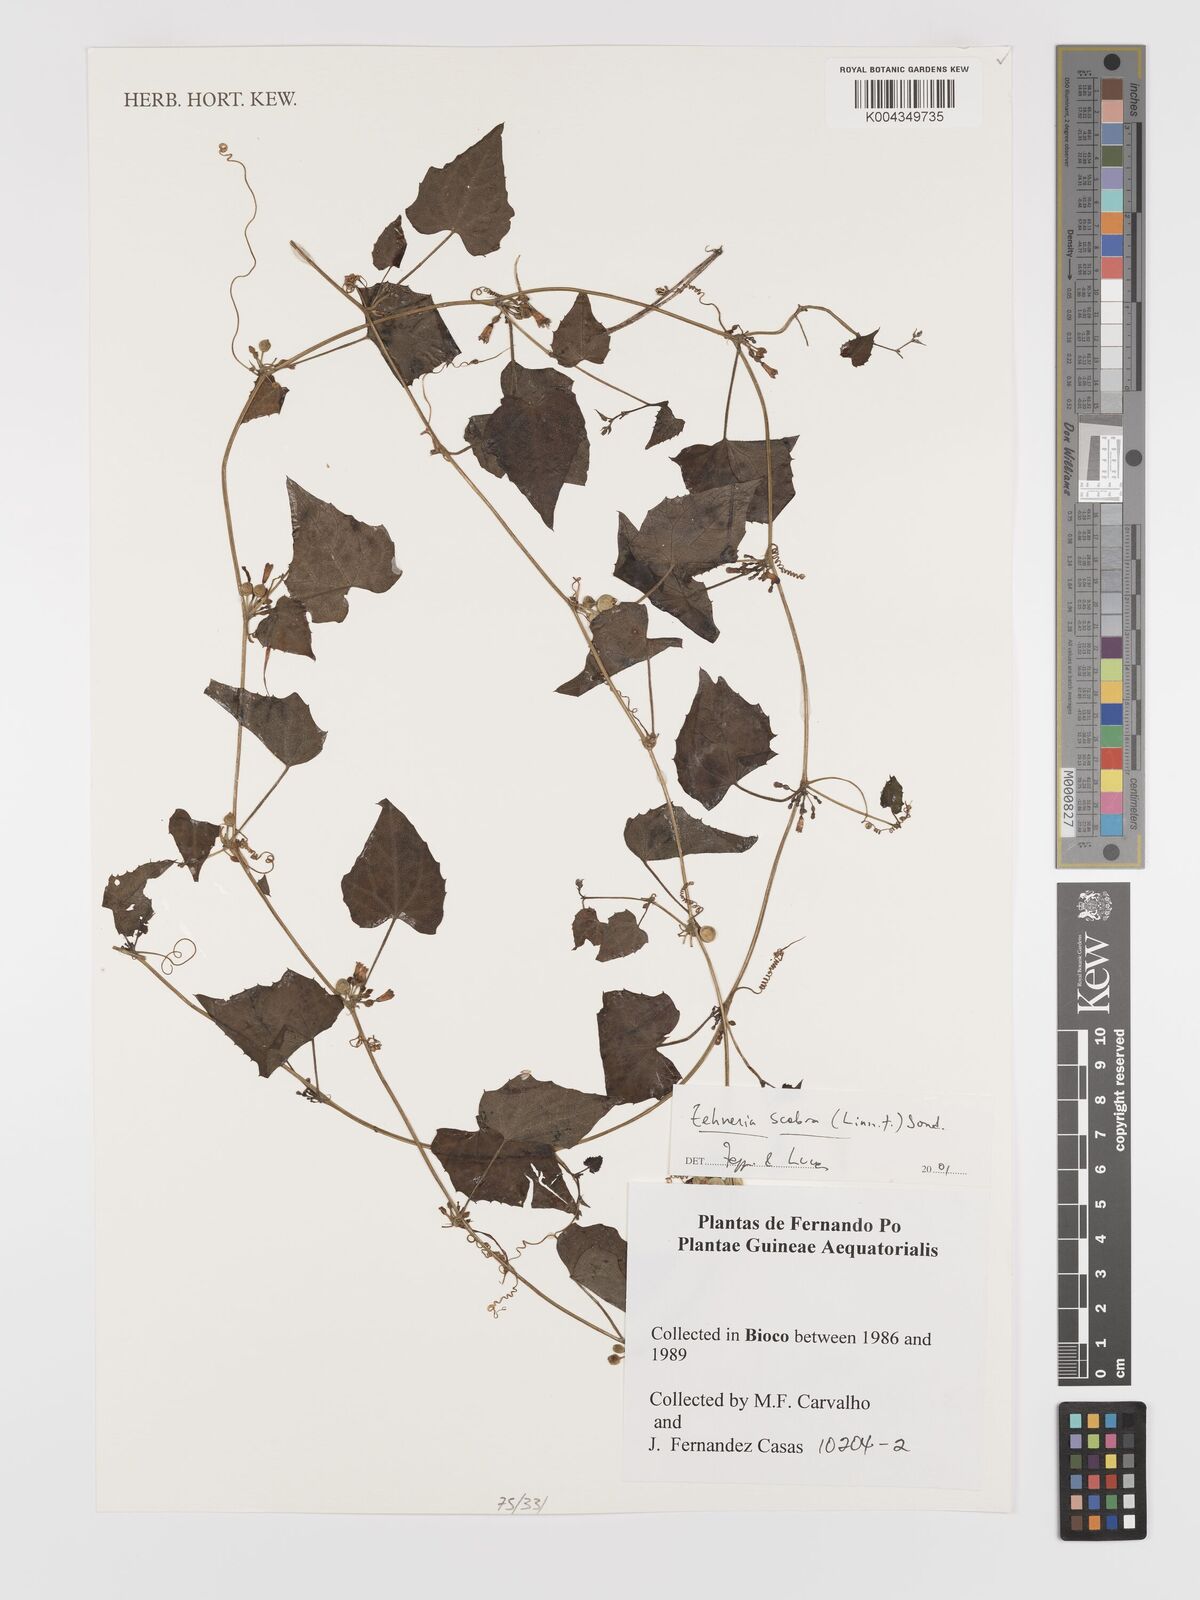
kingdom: Plantae
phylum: Tracheophyta
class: Magnoliopsida
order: Cucurbitales
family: Cucurbitaceae
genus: Zehneria
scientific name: Zehneria scabra
